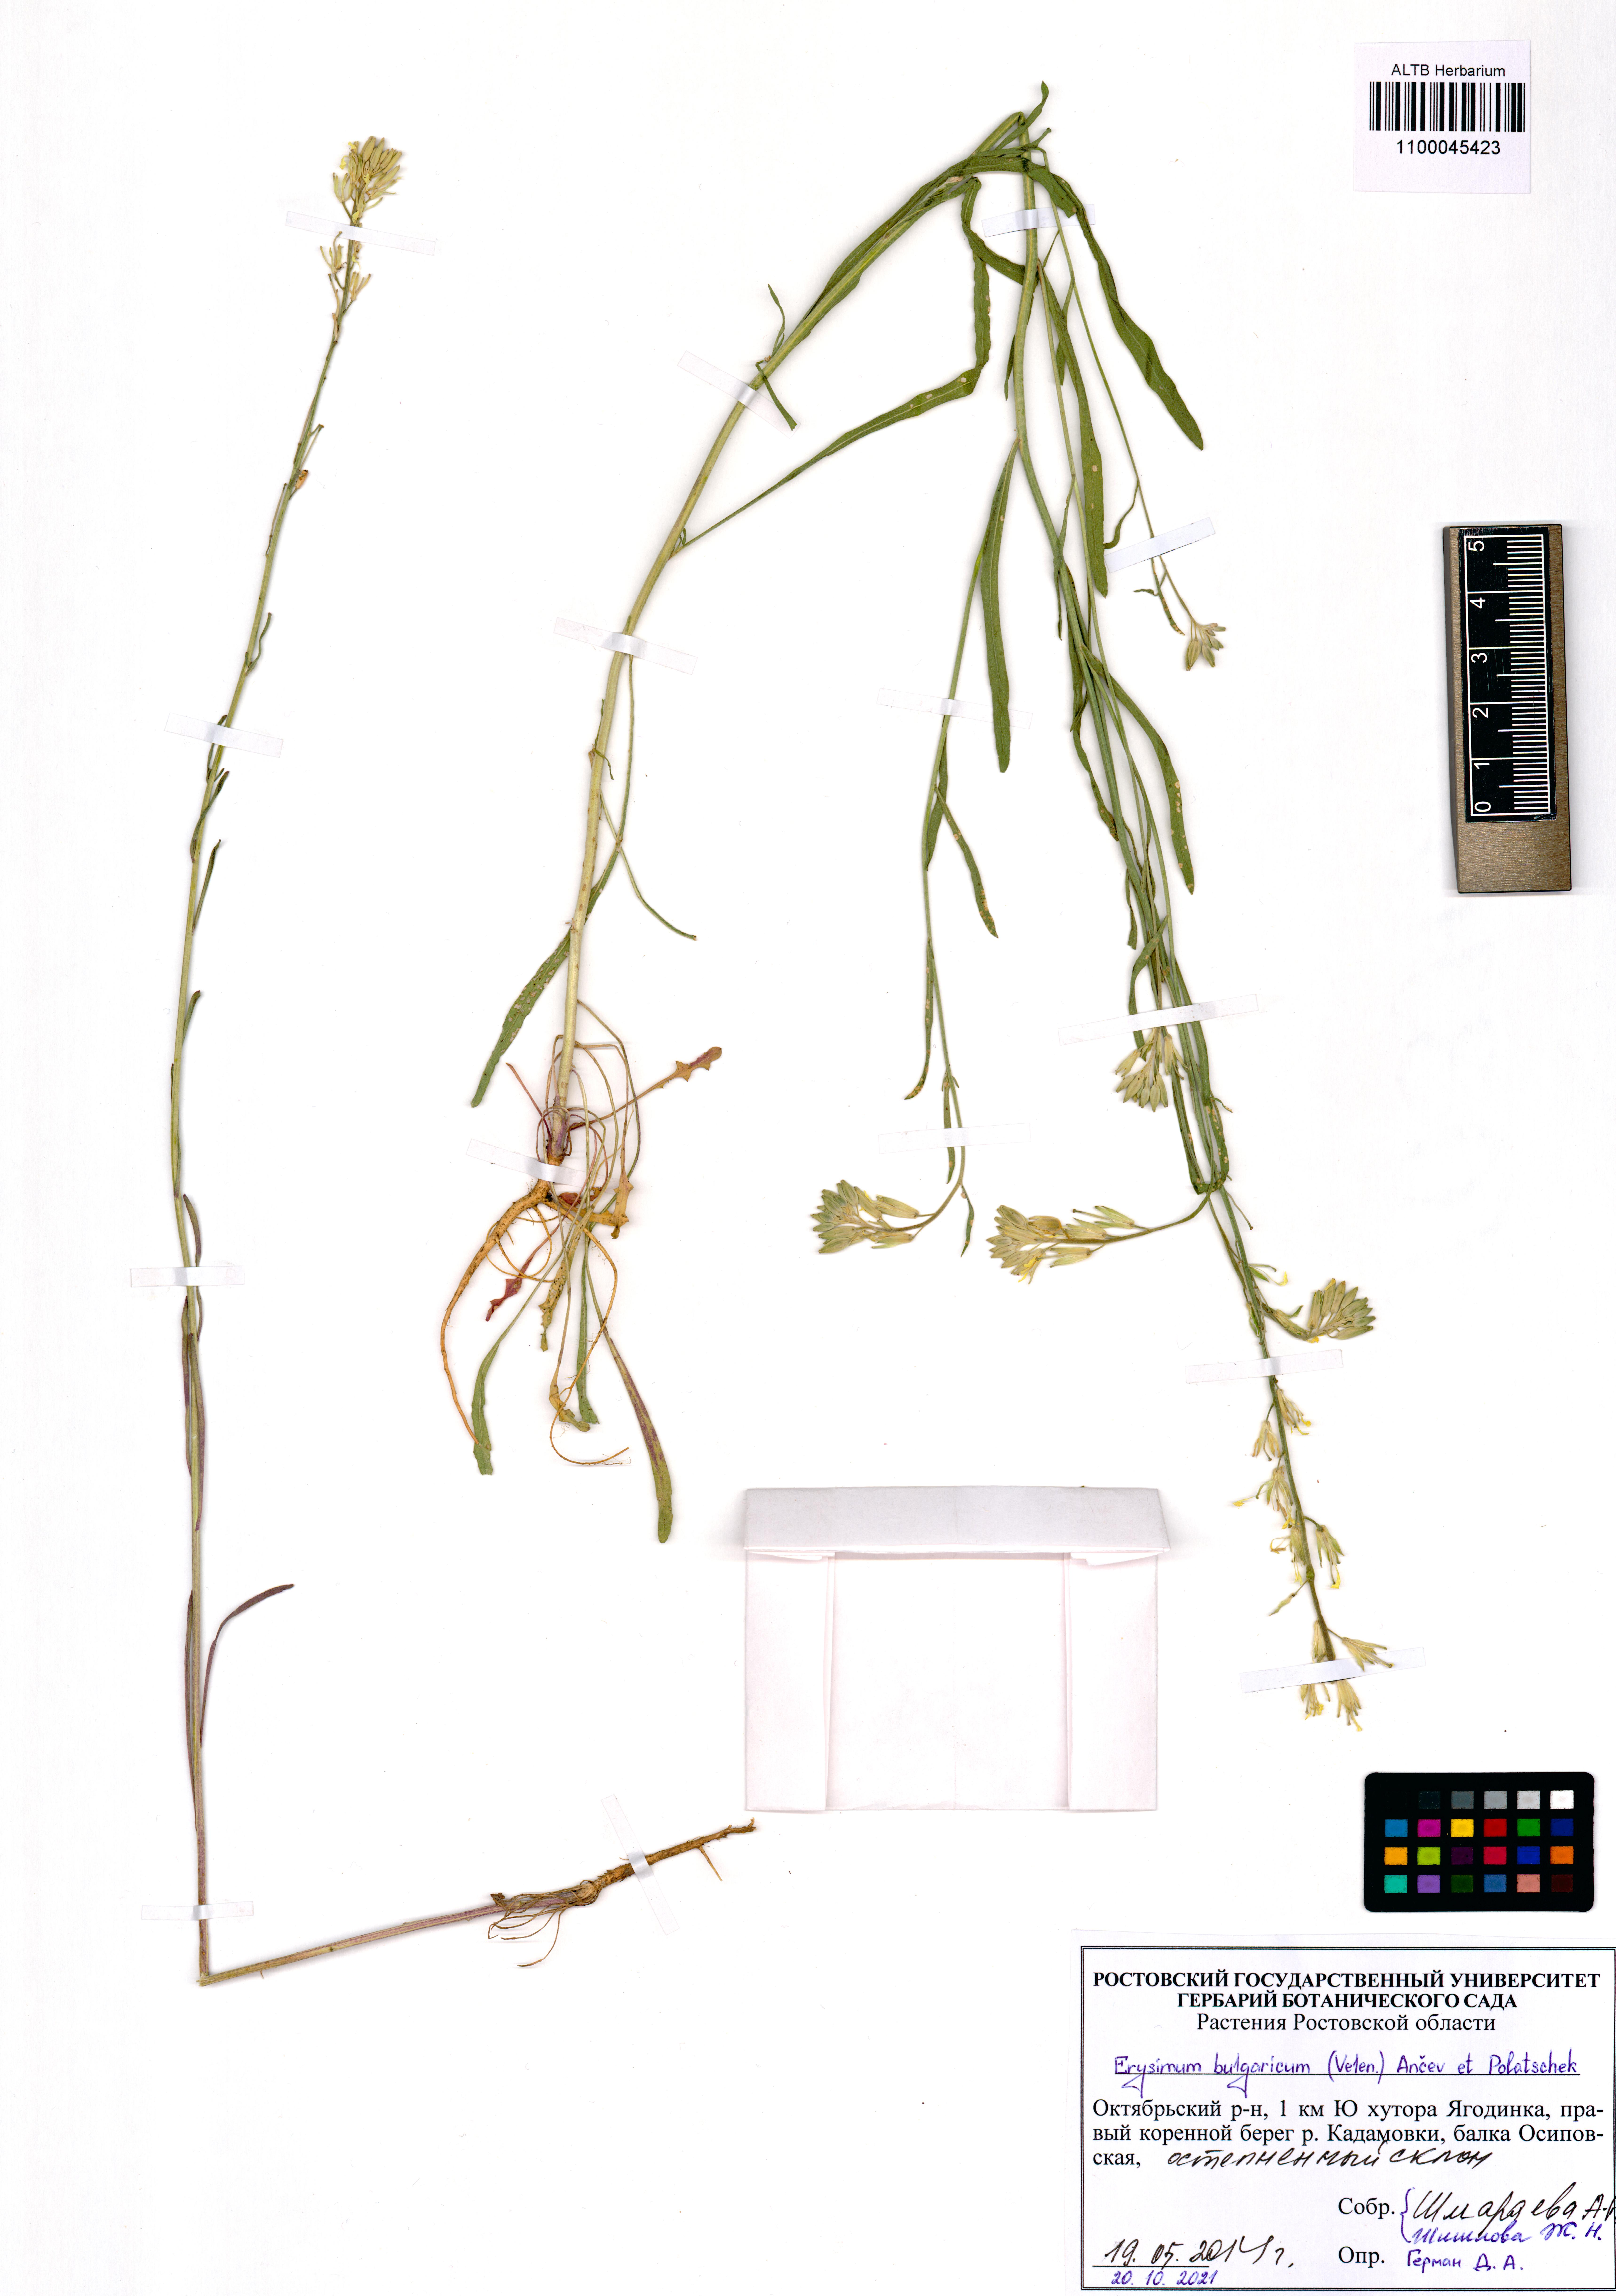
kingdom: Plantae
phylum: Tracheophyta
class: Magnoliopsida
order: Brassicales
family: Brassicaceae
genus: Erysimum
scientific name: Erysimum bulgaricum
